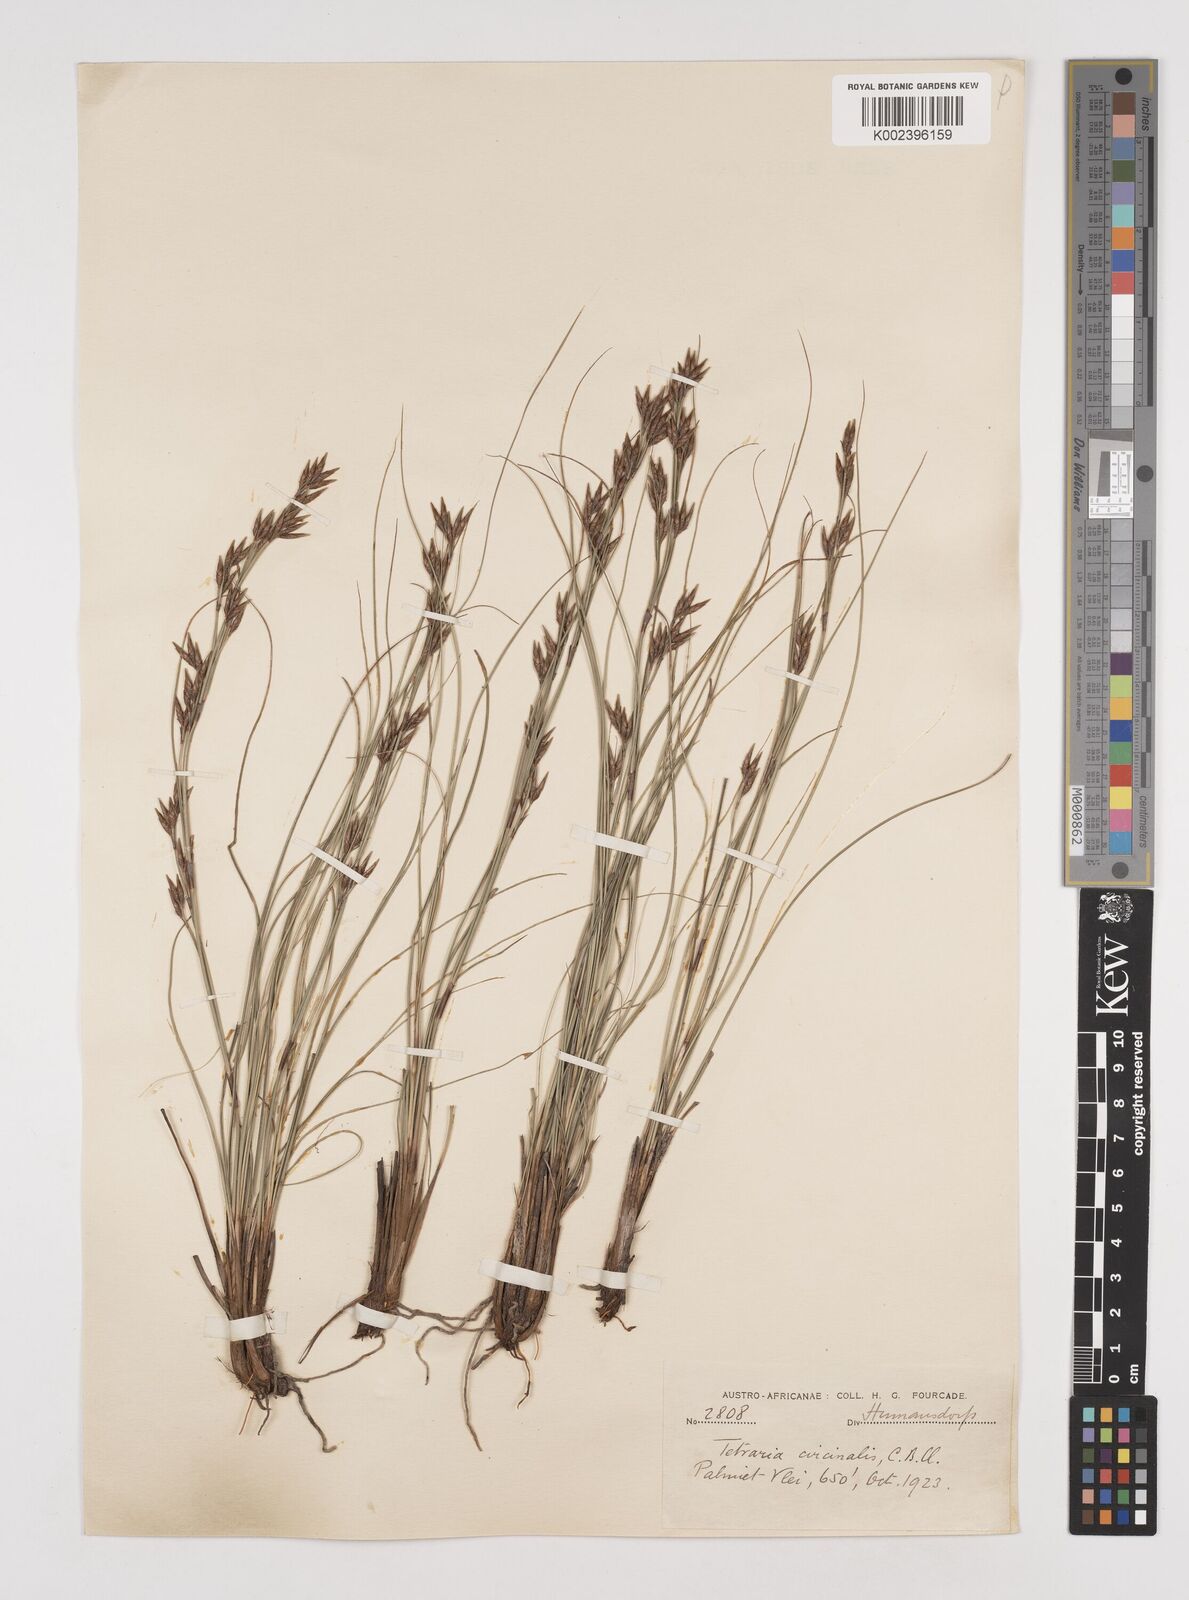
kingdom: Plantae
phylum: Tracheophyta
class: Liliopsida
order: Poales
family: Cyperaceae
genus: Tetraria
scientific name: Tetraria microstachys
